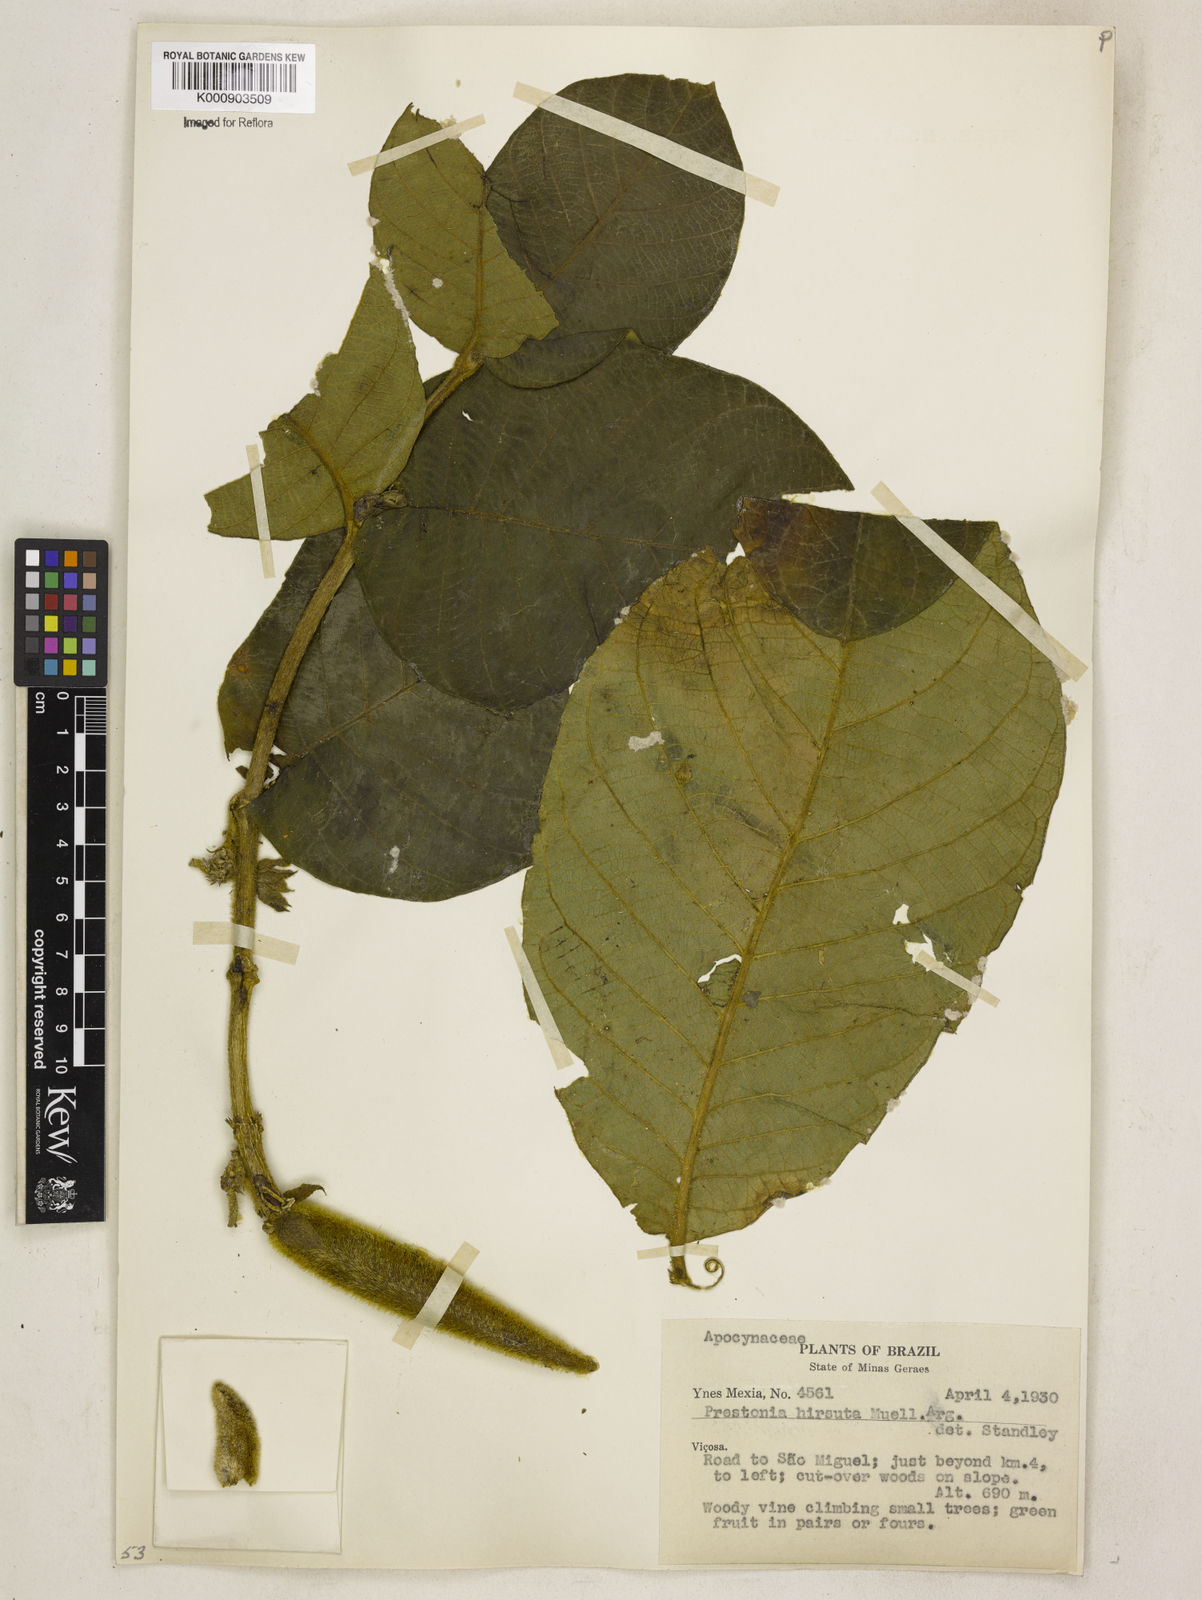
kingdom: Plantae
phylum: Tracheophyta
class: Magnoliopsida
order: Gentianales
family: Apocynaceae
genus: Prestonia
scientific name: Prestonia
